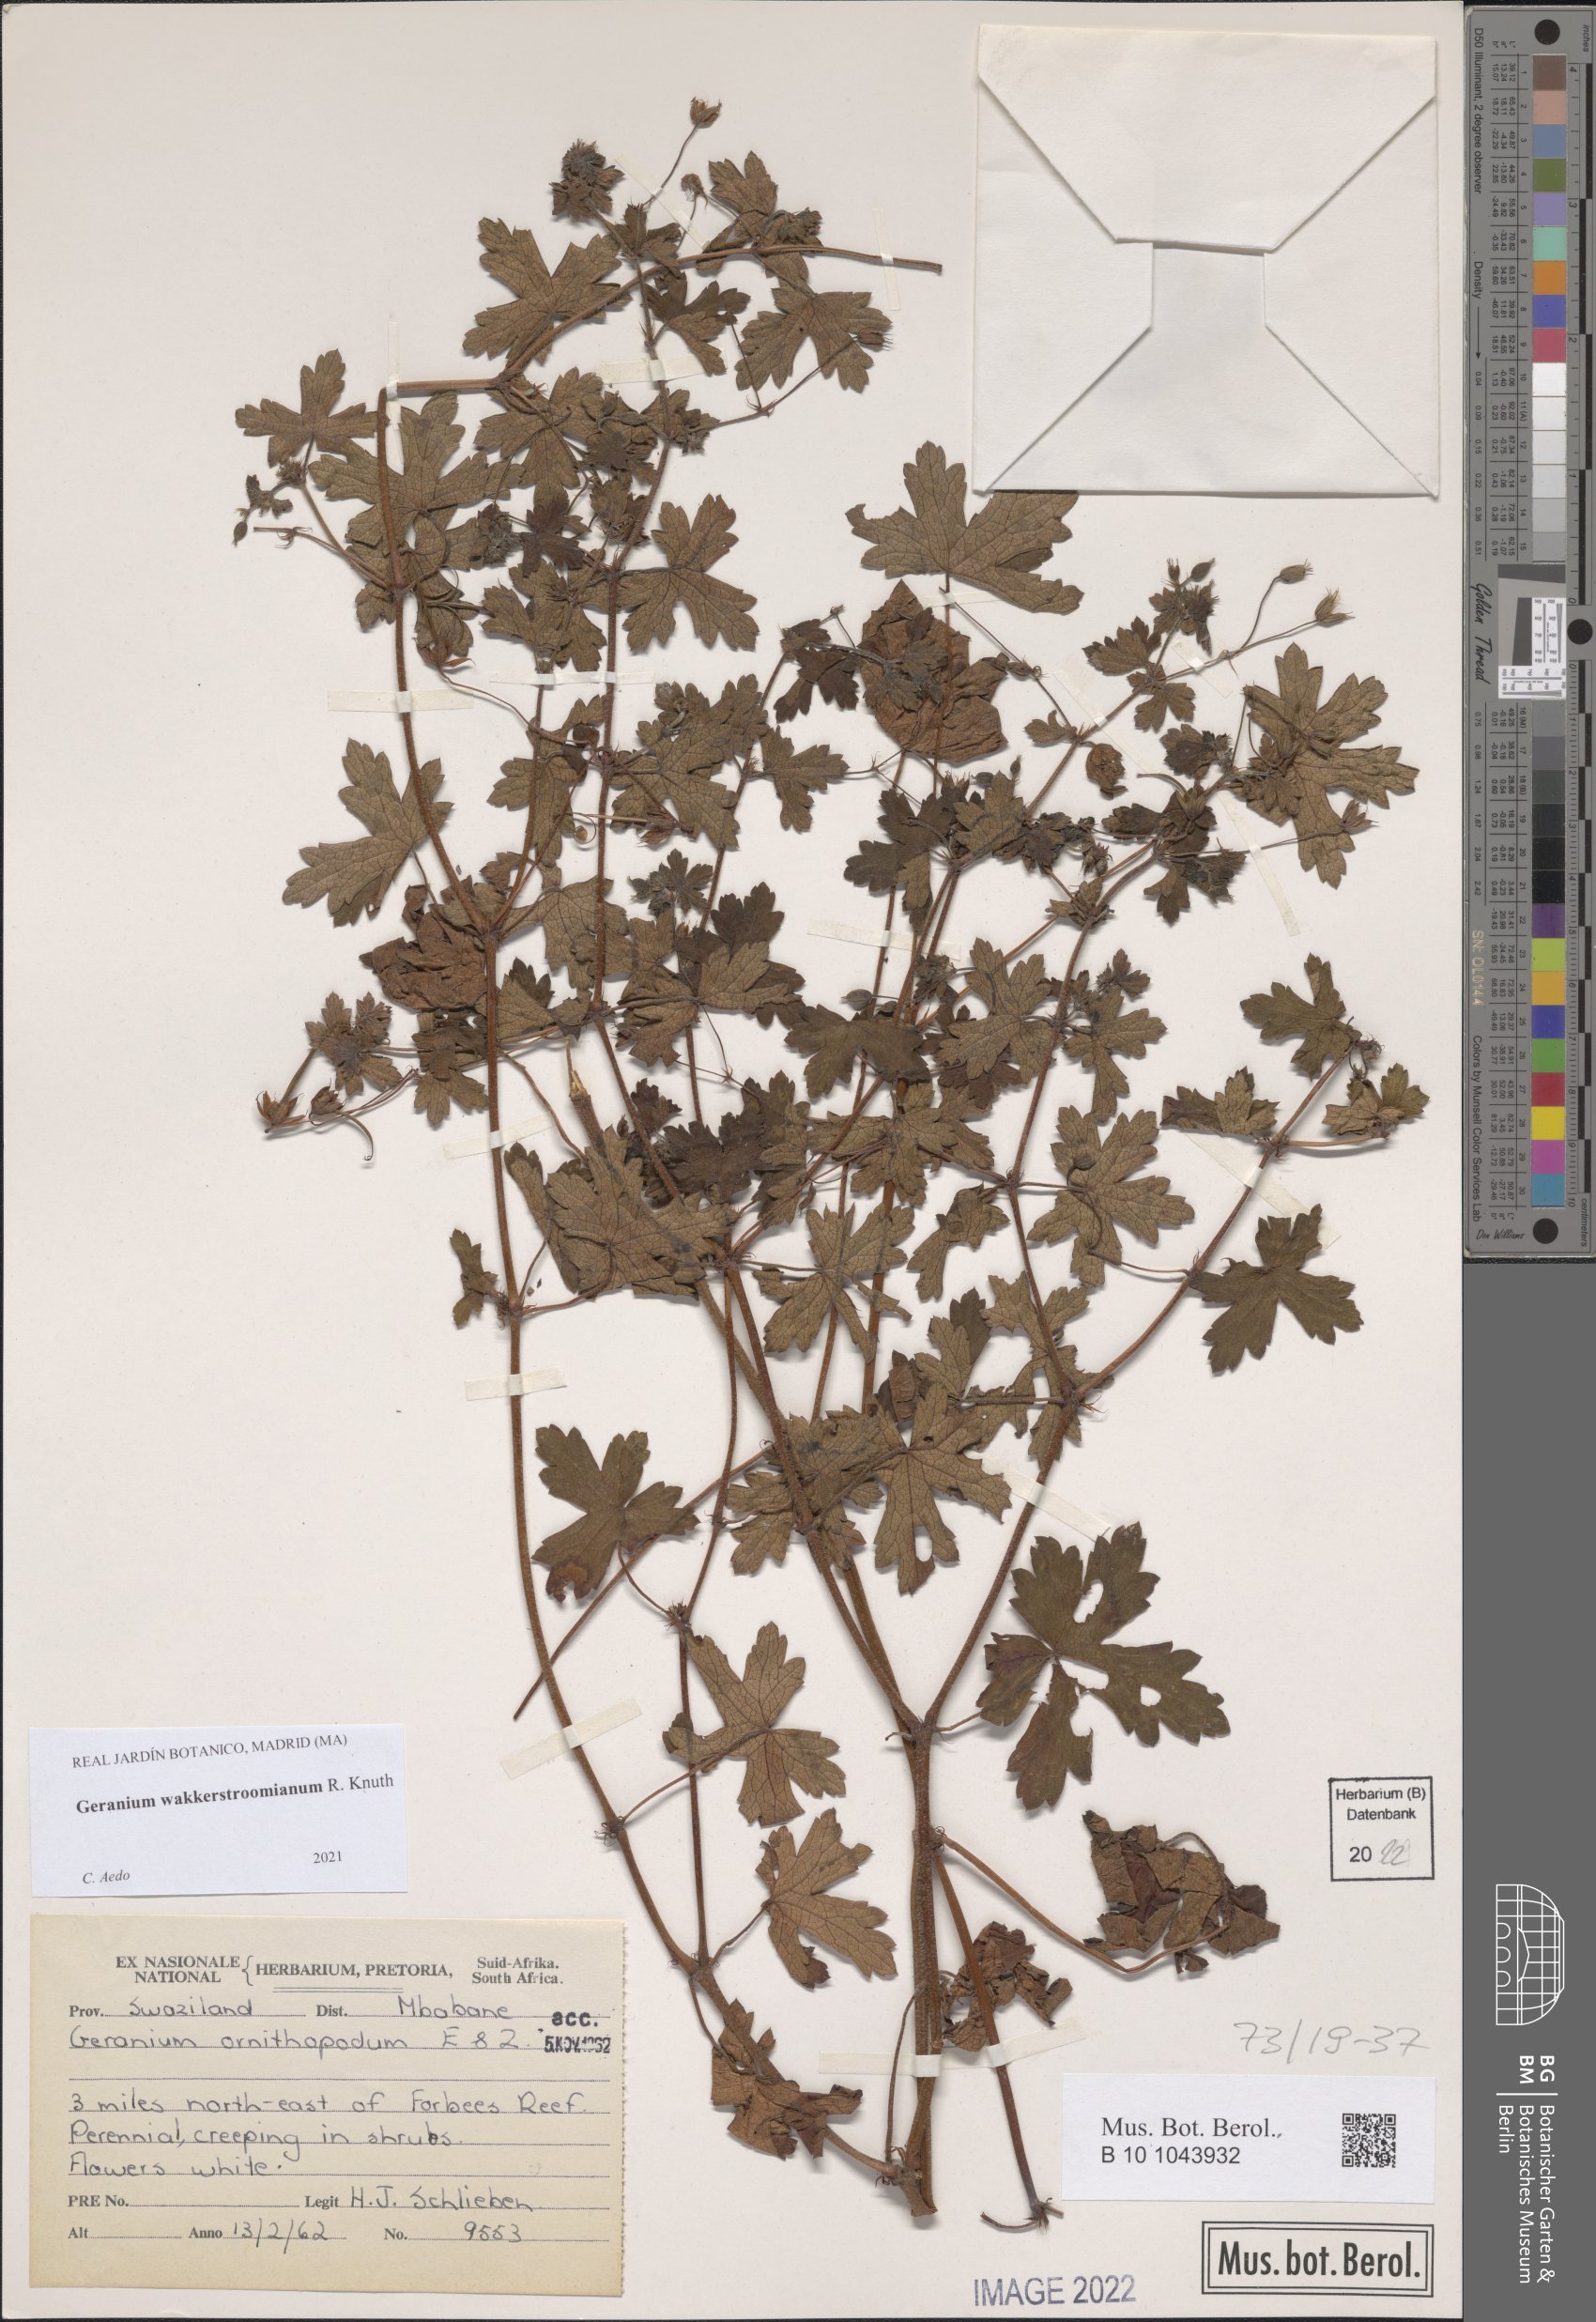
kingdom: Plantae
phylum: Tracheophyta
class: Magnoliopsida
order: Geraniales
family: Geraniaceae
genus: Geranium
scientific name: Geranium wakkerstroomianum
